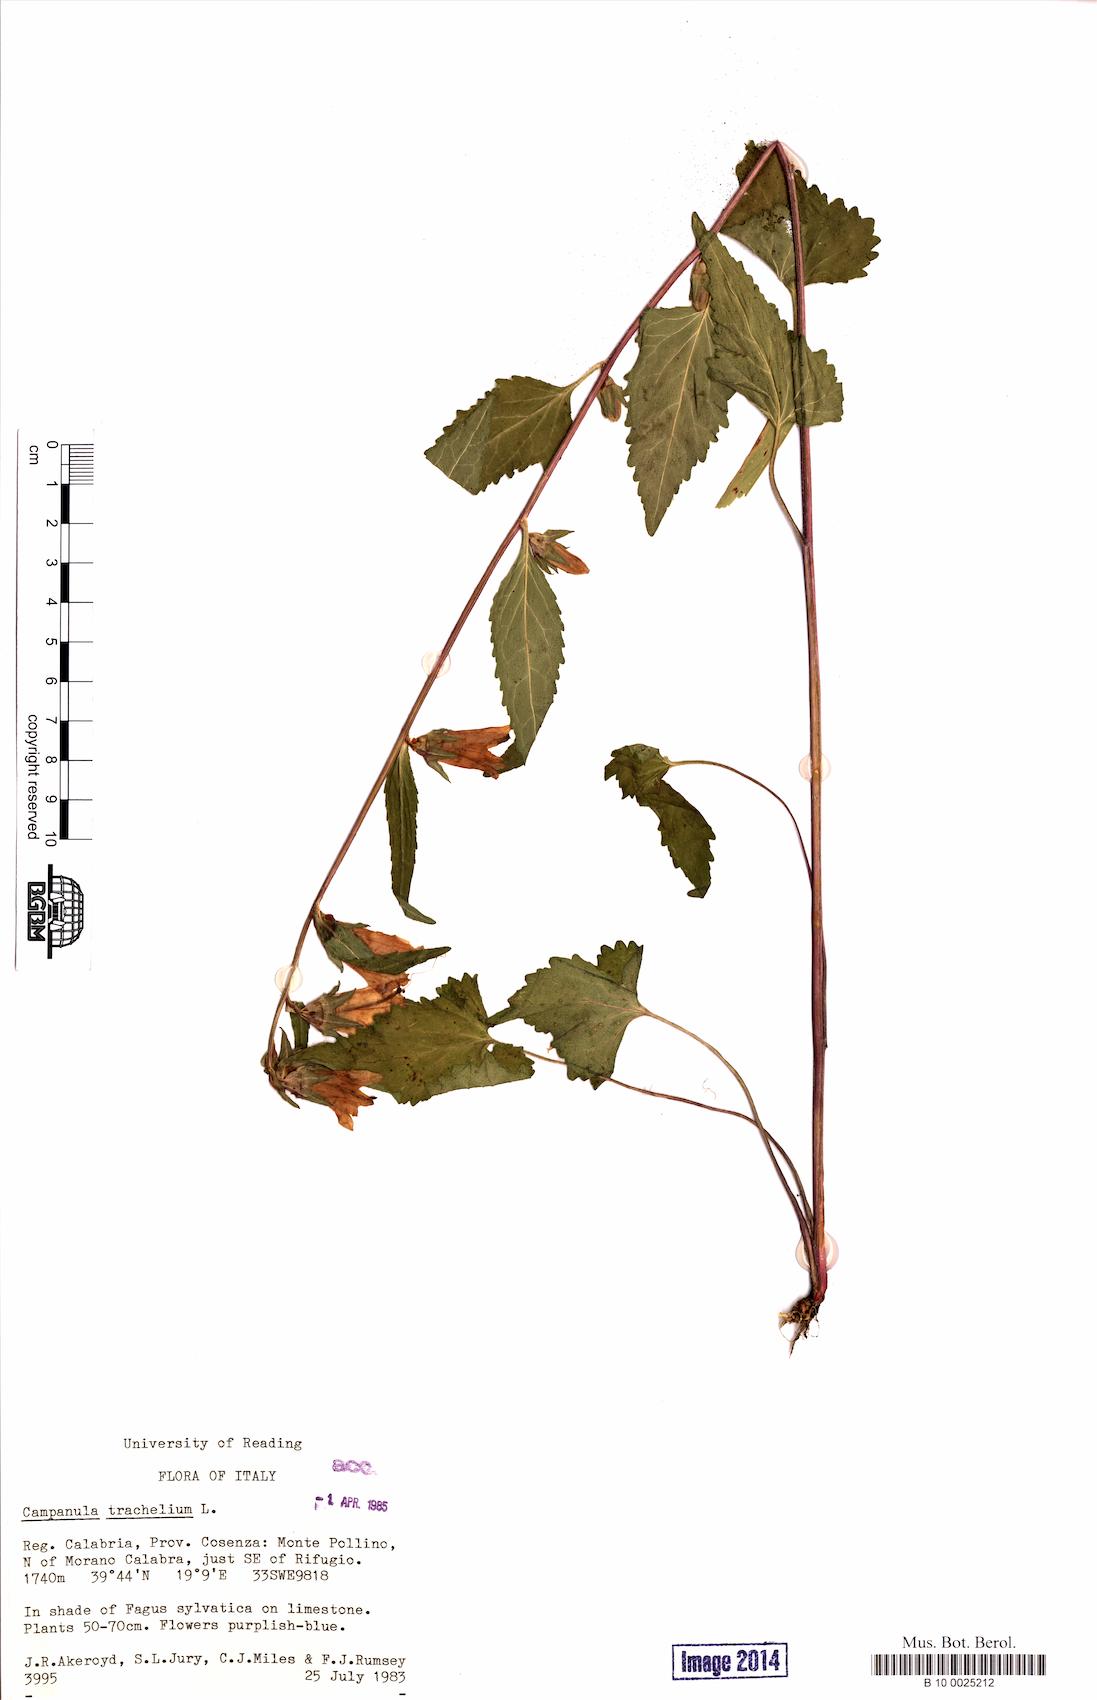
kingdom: Plantae
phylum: Tracheophyta
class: Magnoliopsida
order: Asterales
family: Campanulaceae
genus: Campanula
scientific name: Campanula trachelium
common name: Nettle-leaved bellflower
